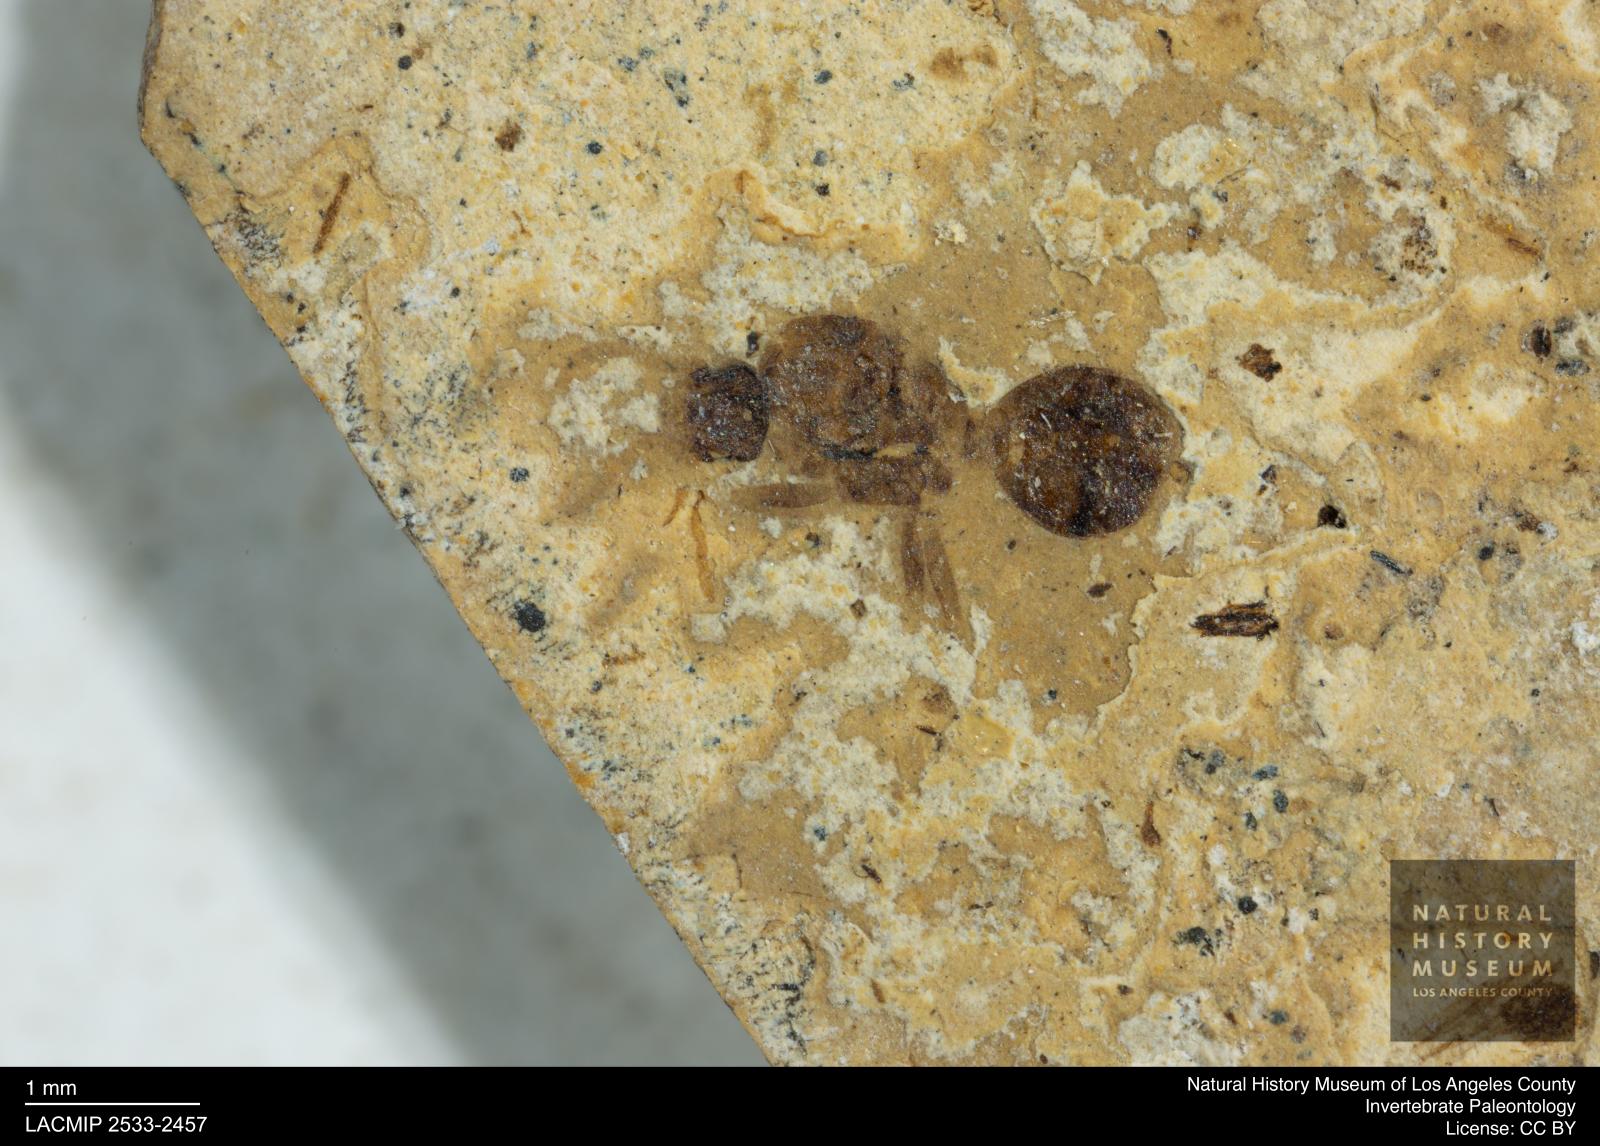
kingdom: Animalia
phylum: Arthropoda
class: Insecta
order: Hymenoptera
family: Formicidae
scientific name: Formicidae
